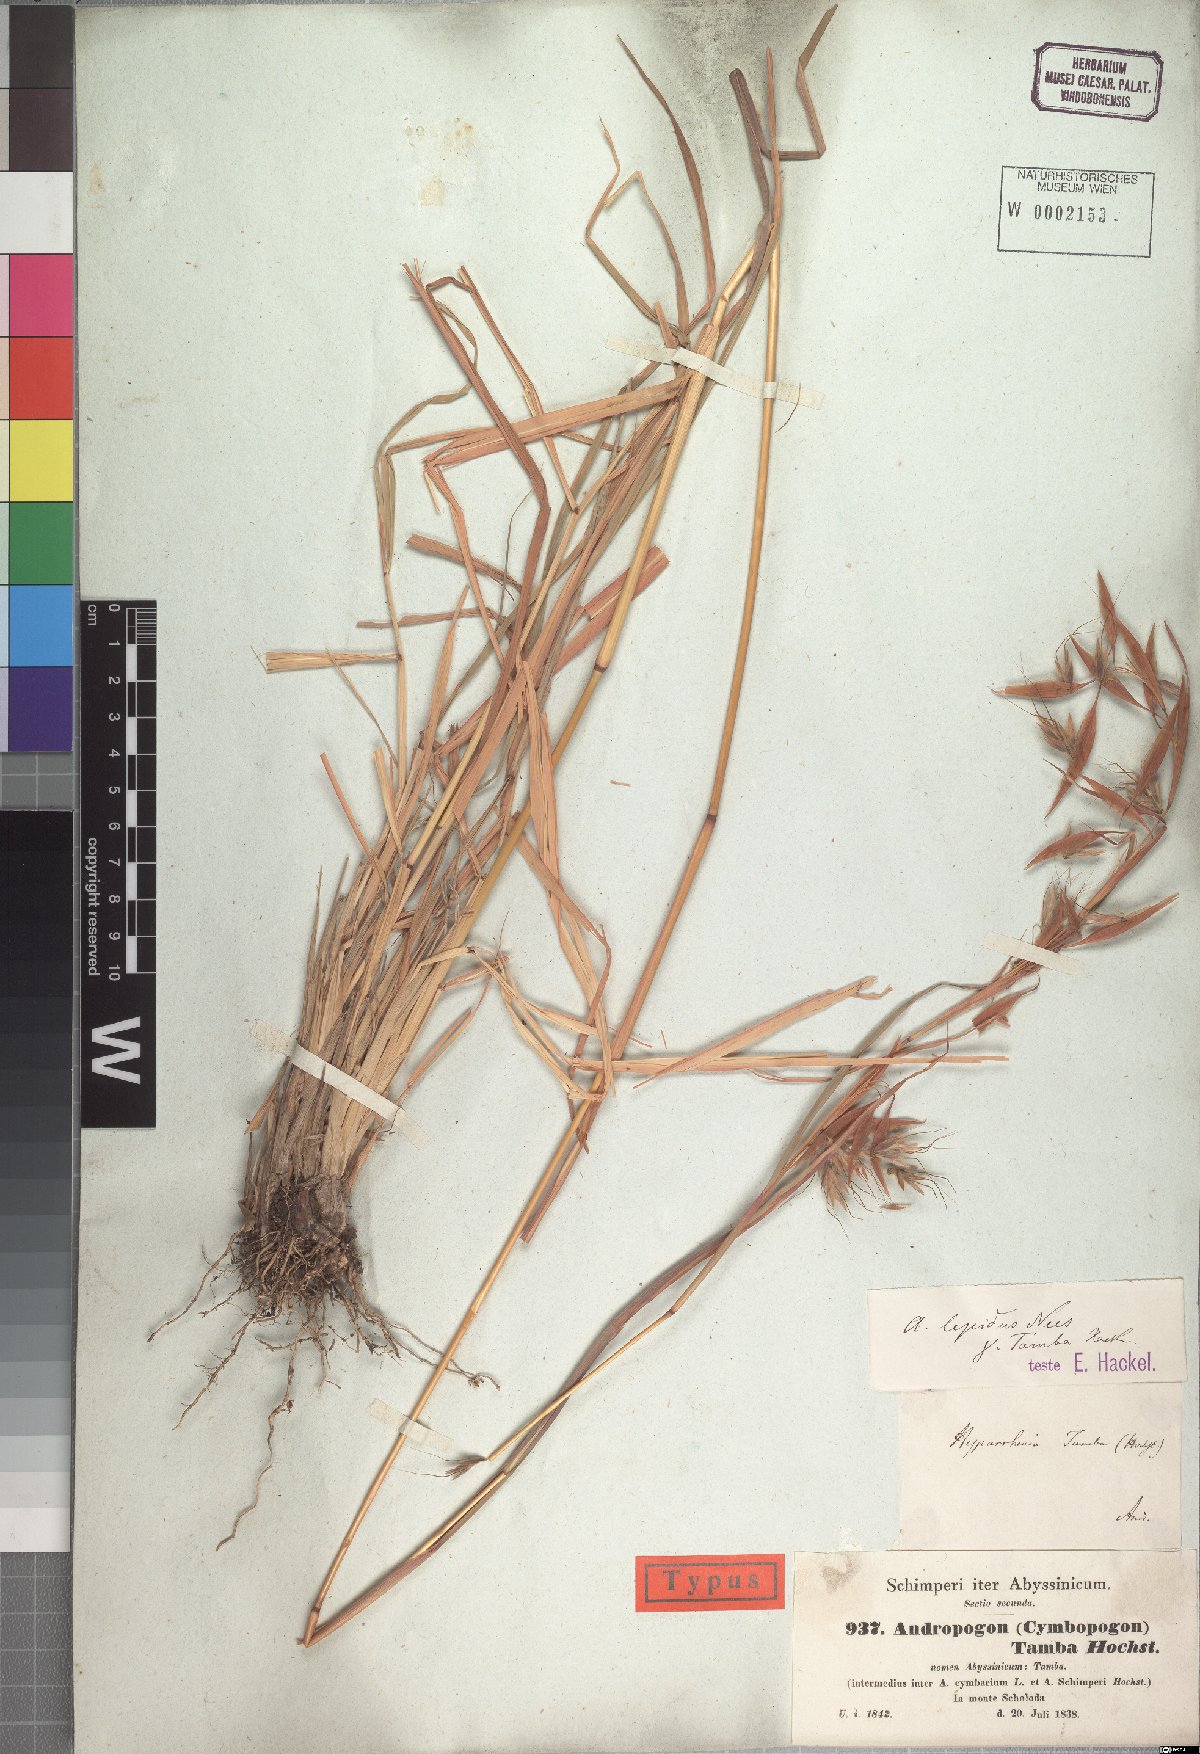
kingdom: Plantae
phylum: Tracheophyta
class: Liliopsida
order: Poales
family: Poaceae
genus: Hyparrhenia
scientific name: Hyparrhenia tamba
